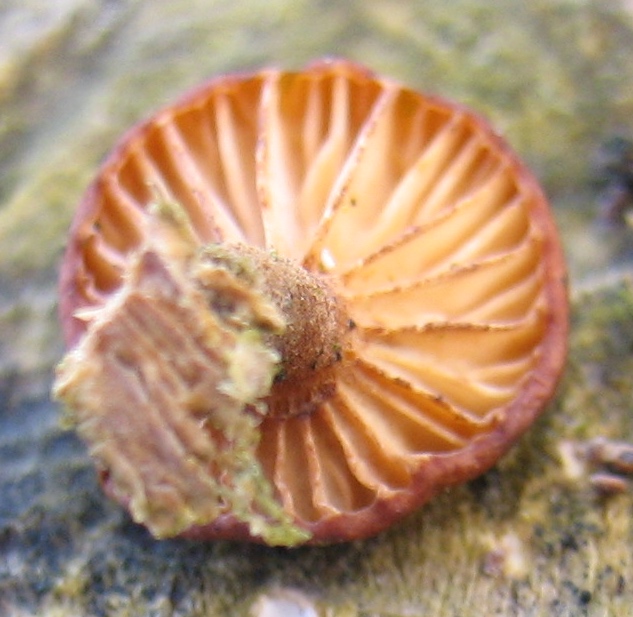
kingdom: Fungi
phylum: Basidiomycota
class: Agaricomycetes
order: Agaricales
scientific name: Agaricales
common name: champignonordenen
